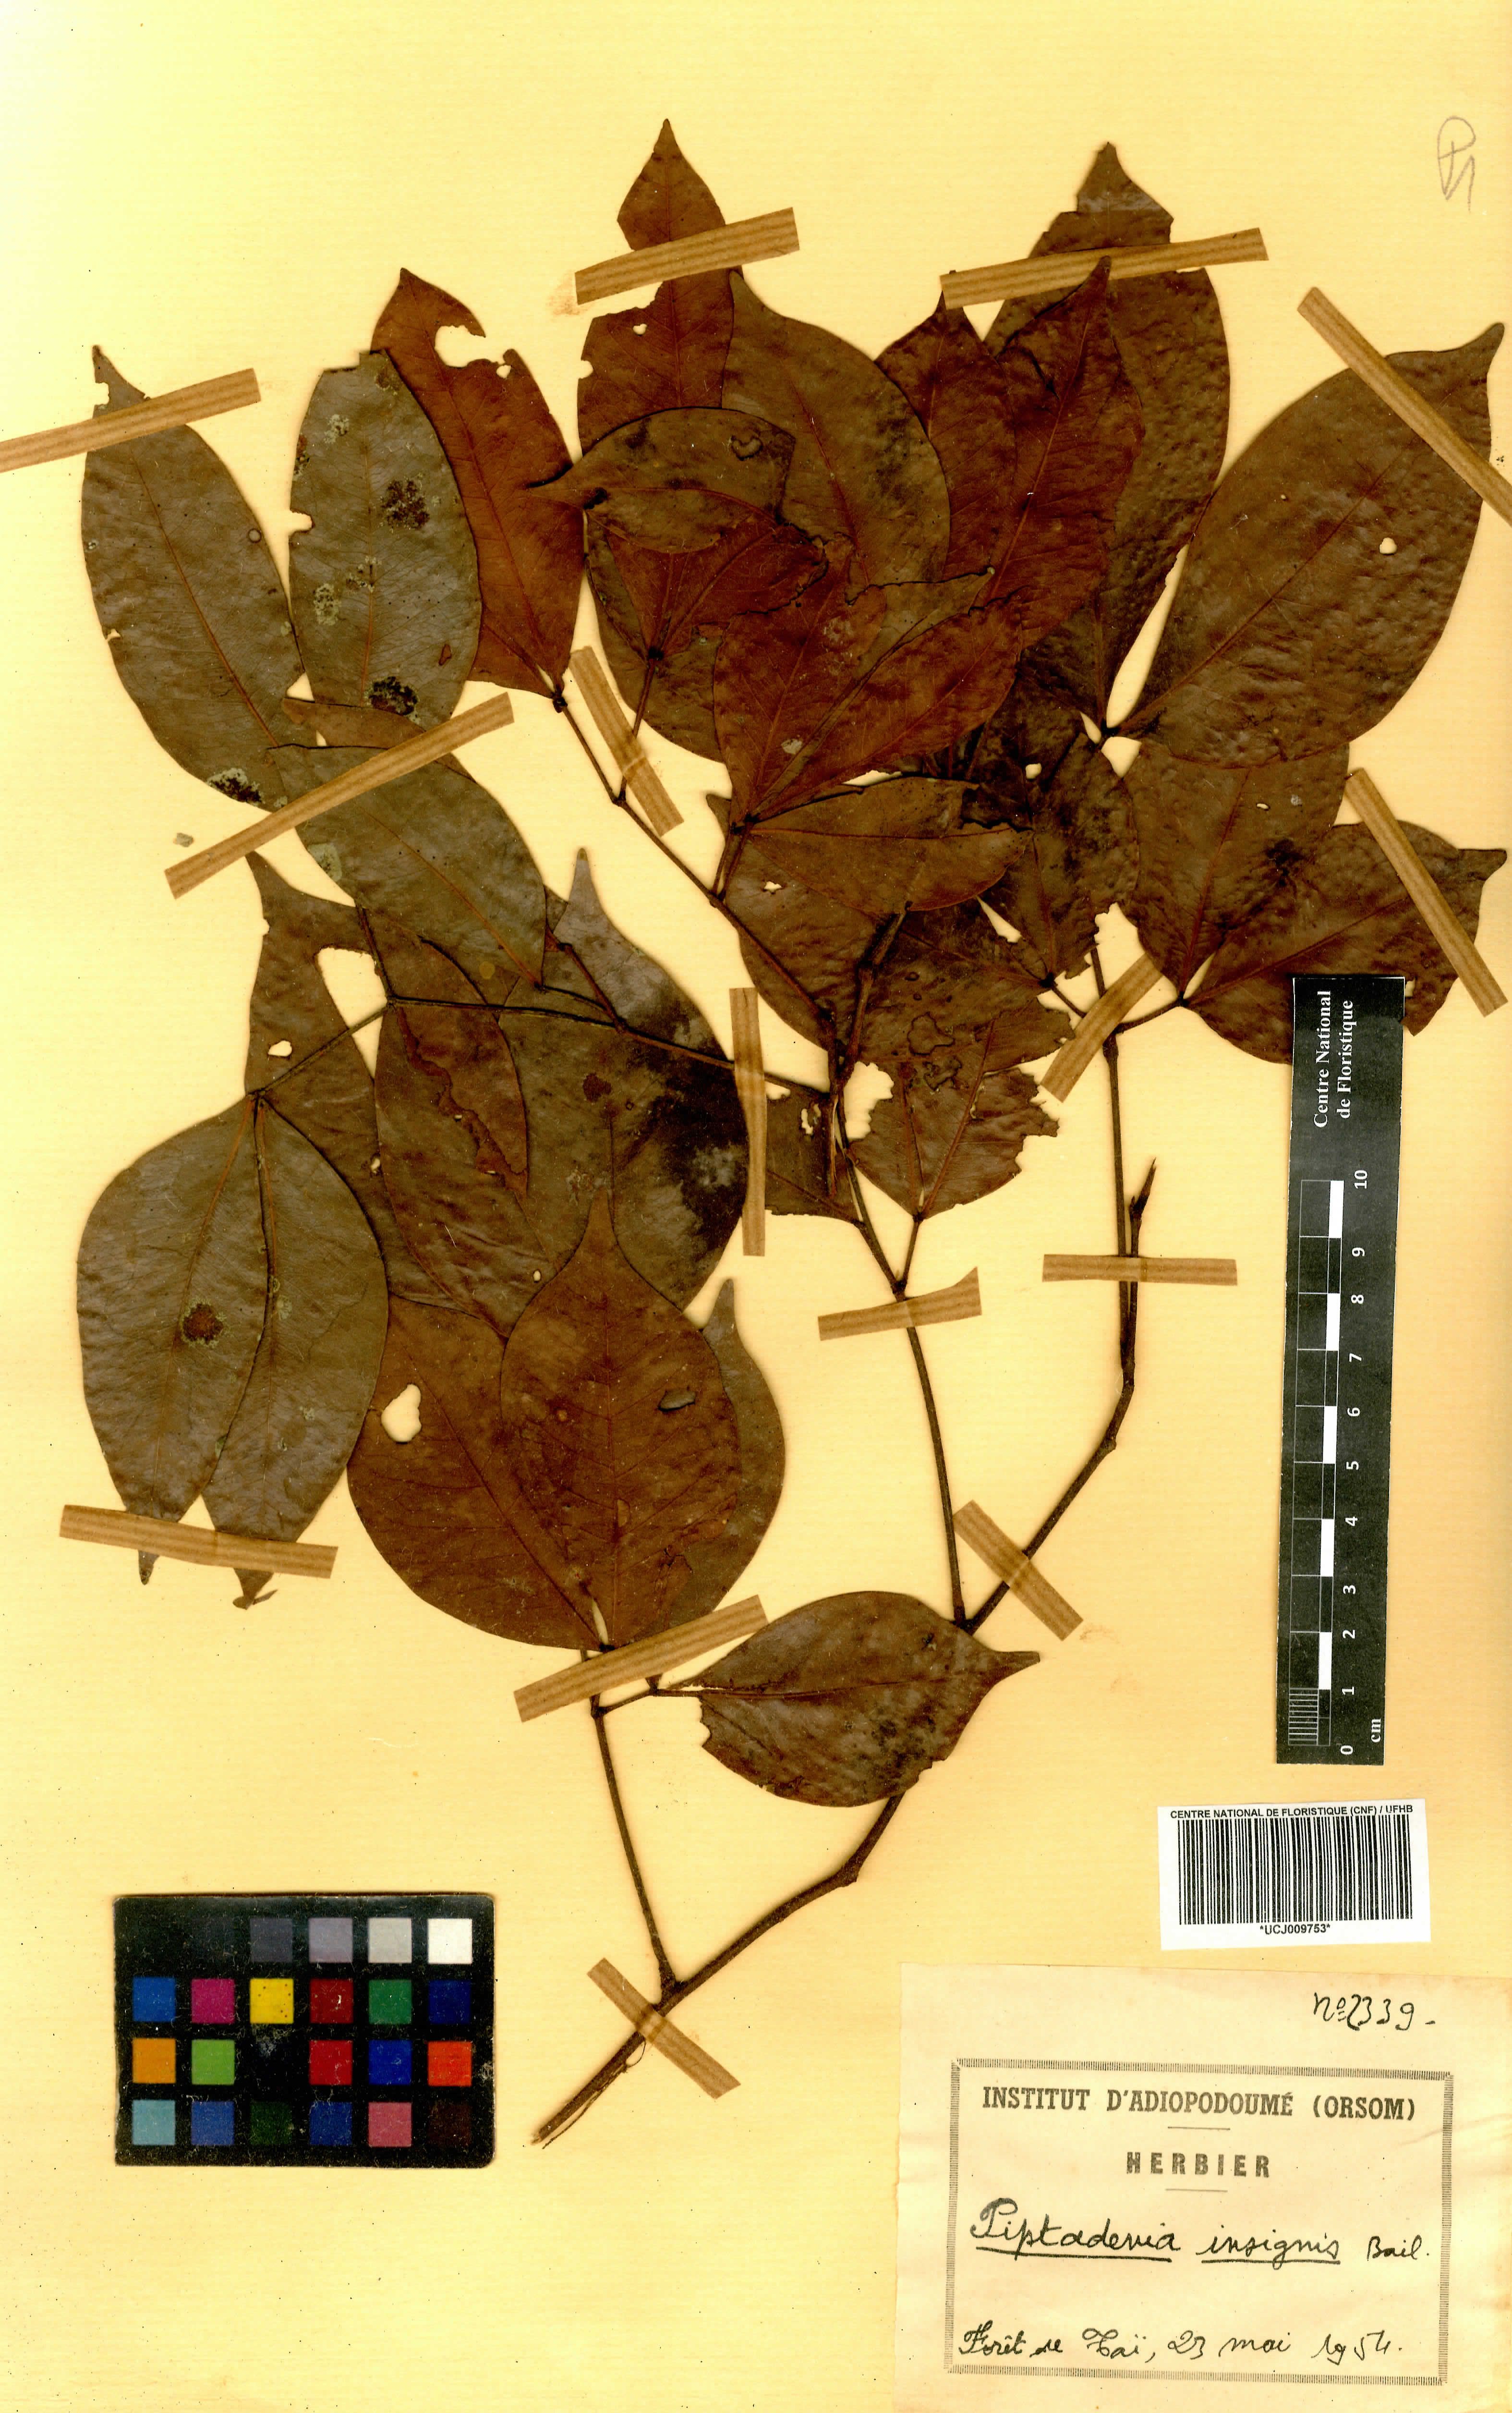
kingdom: Plantae
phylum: Tracheophyta
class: Magnoliopsida
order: Fabales
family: Fabaceae
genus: Newtonia
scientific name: Newtonia duparquetiana
